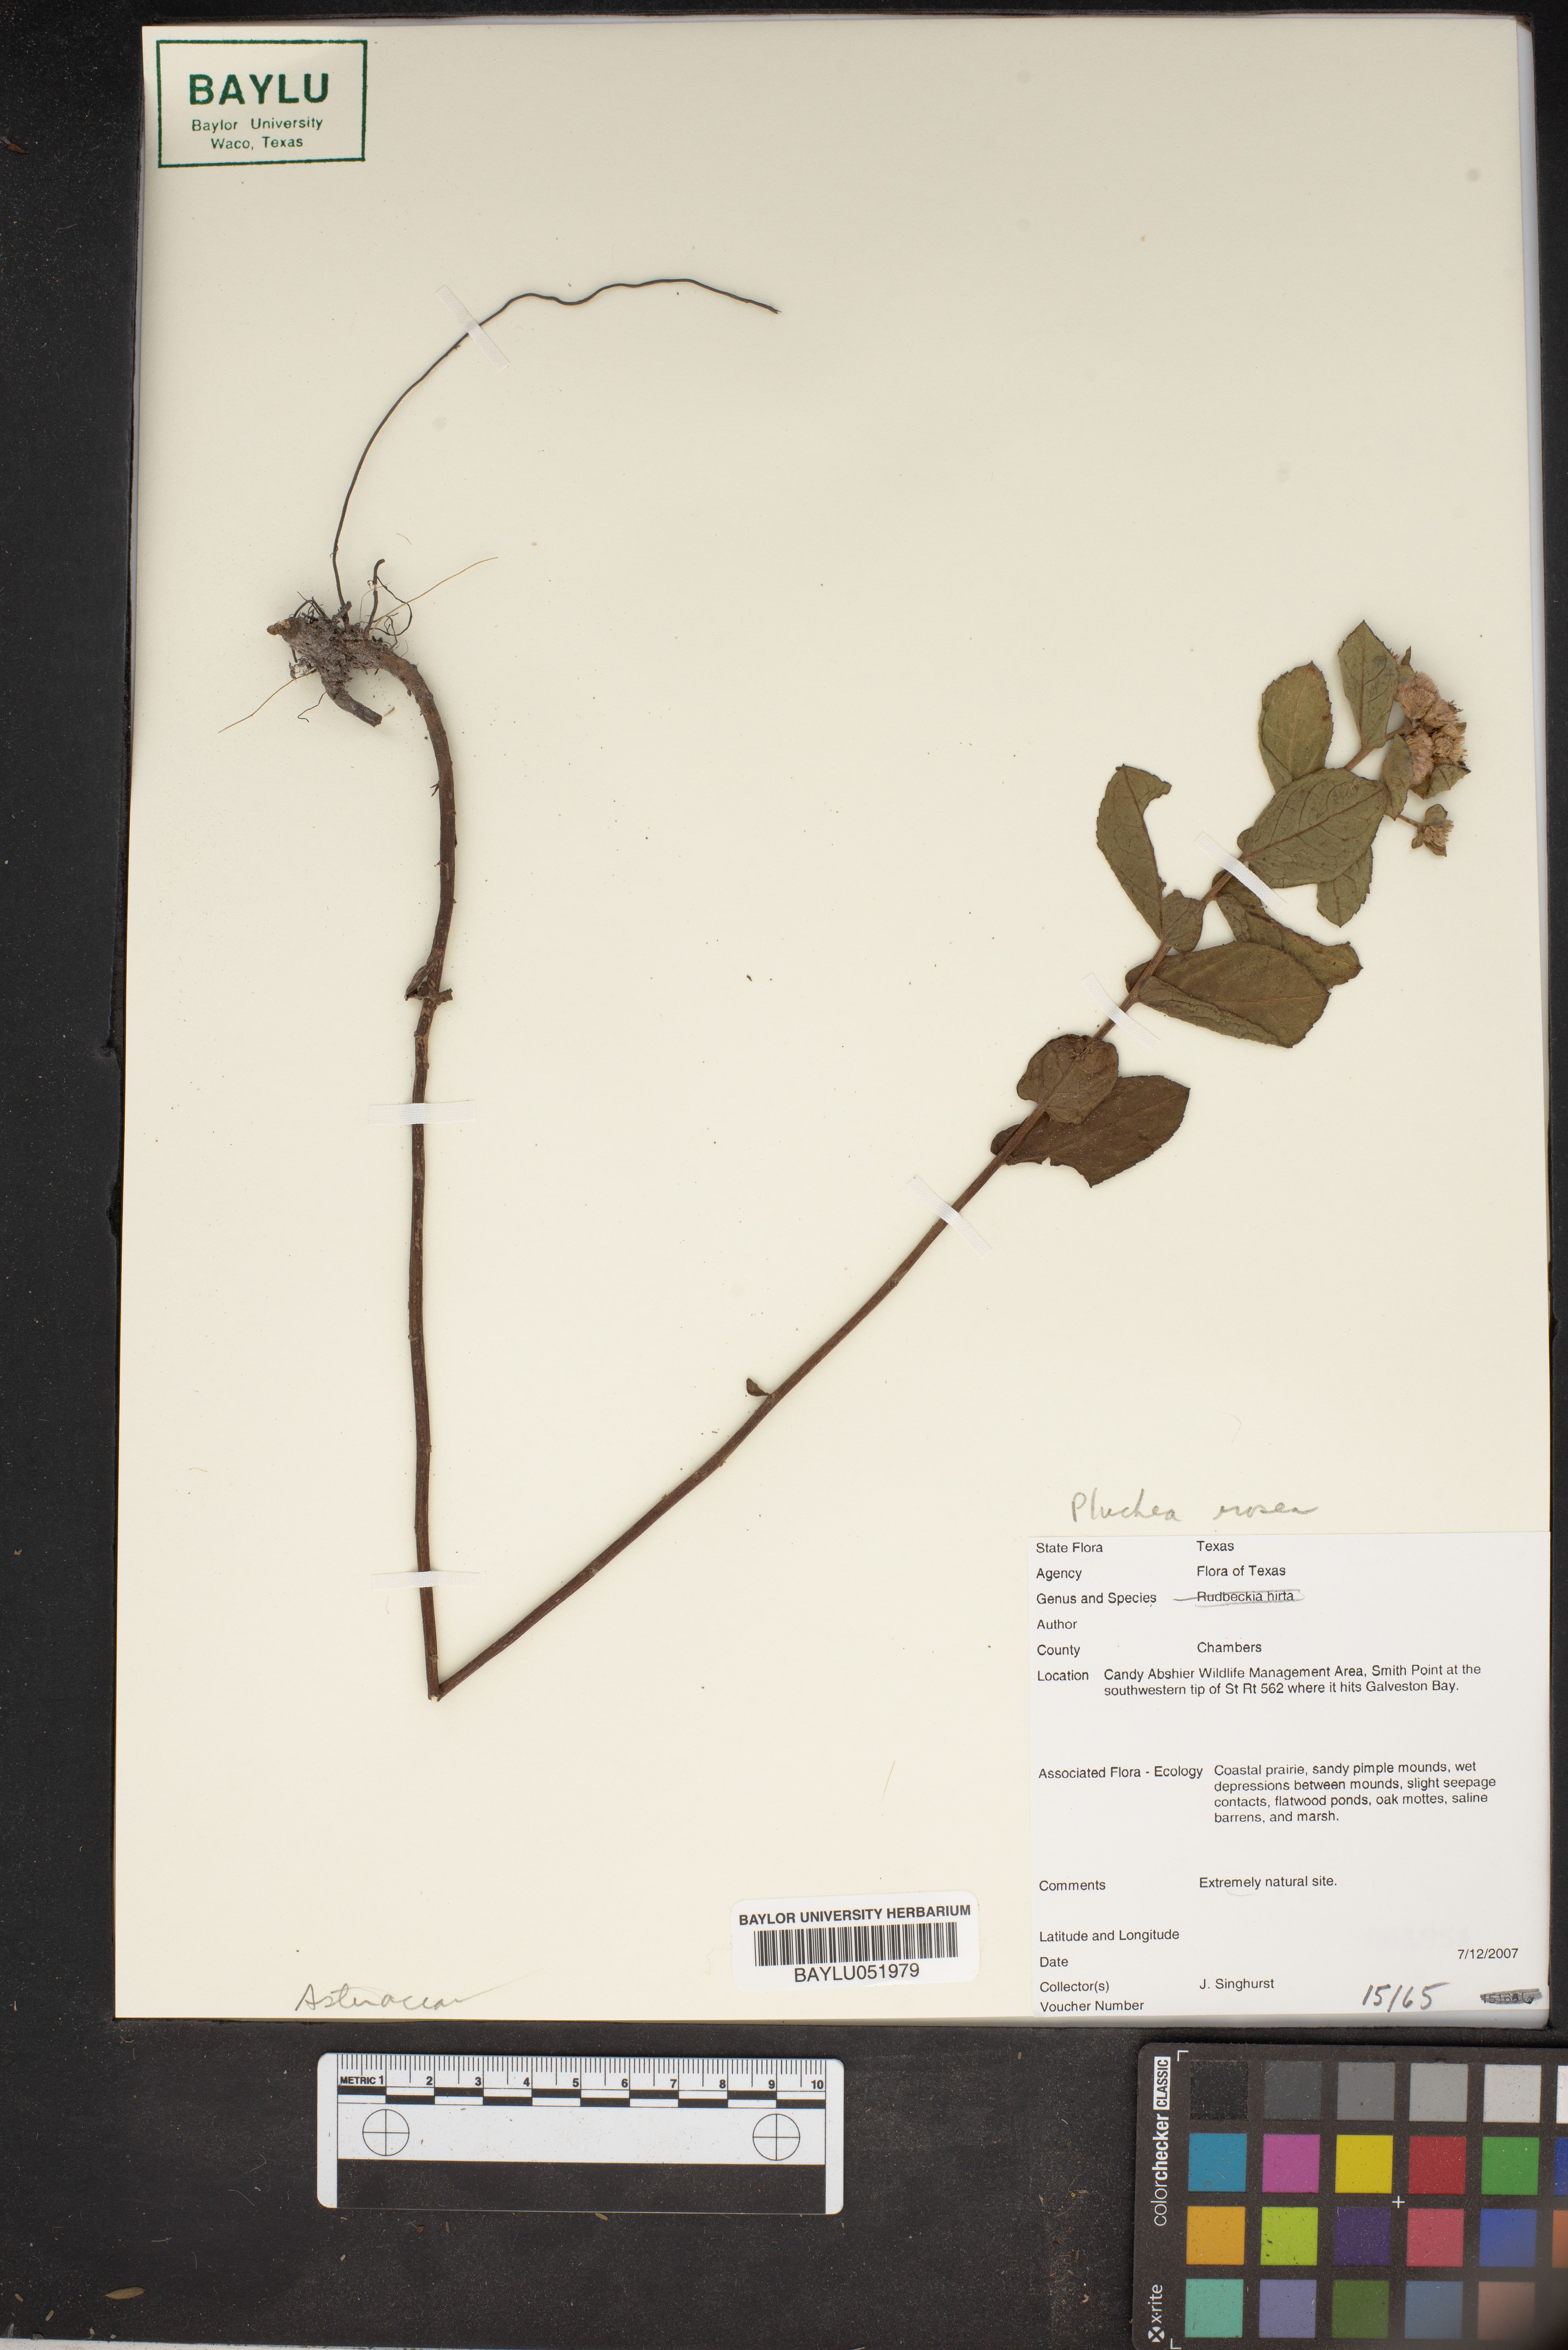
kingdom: Plantae
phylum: Tracheophyta
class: Magnoliopsida
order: Asterales
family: Asteraceae
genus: Pluchea
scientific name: Pluchea baccharis
